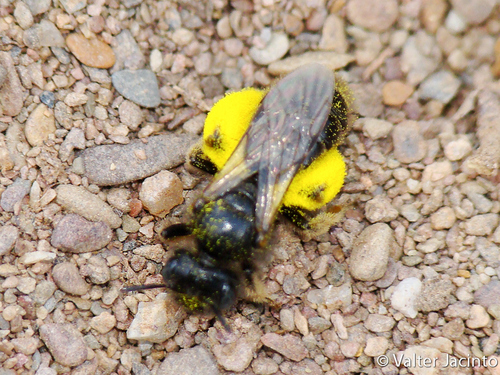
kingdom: Animalia
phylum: Arthropoda
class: Insecta
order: Hymenoptera
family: Andrenidae
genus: Panurgus
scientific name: Panurgus
